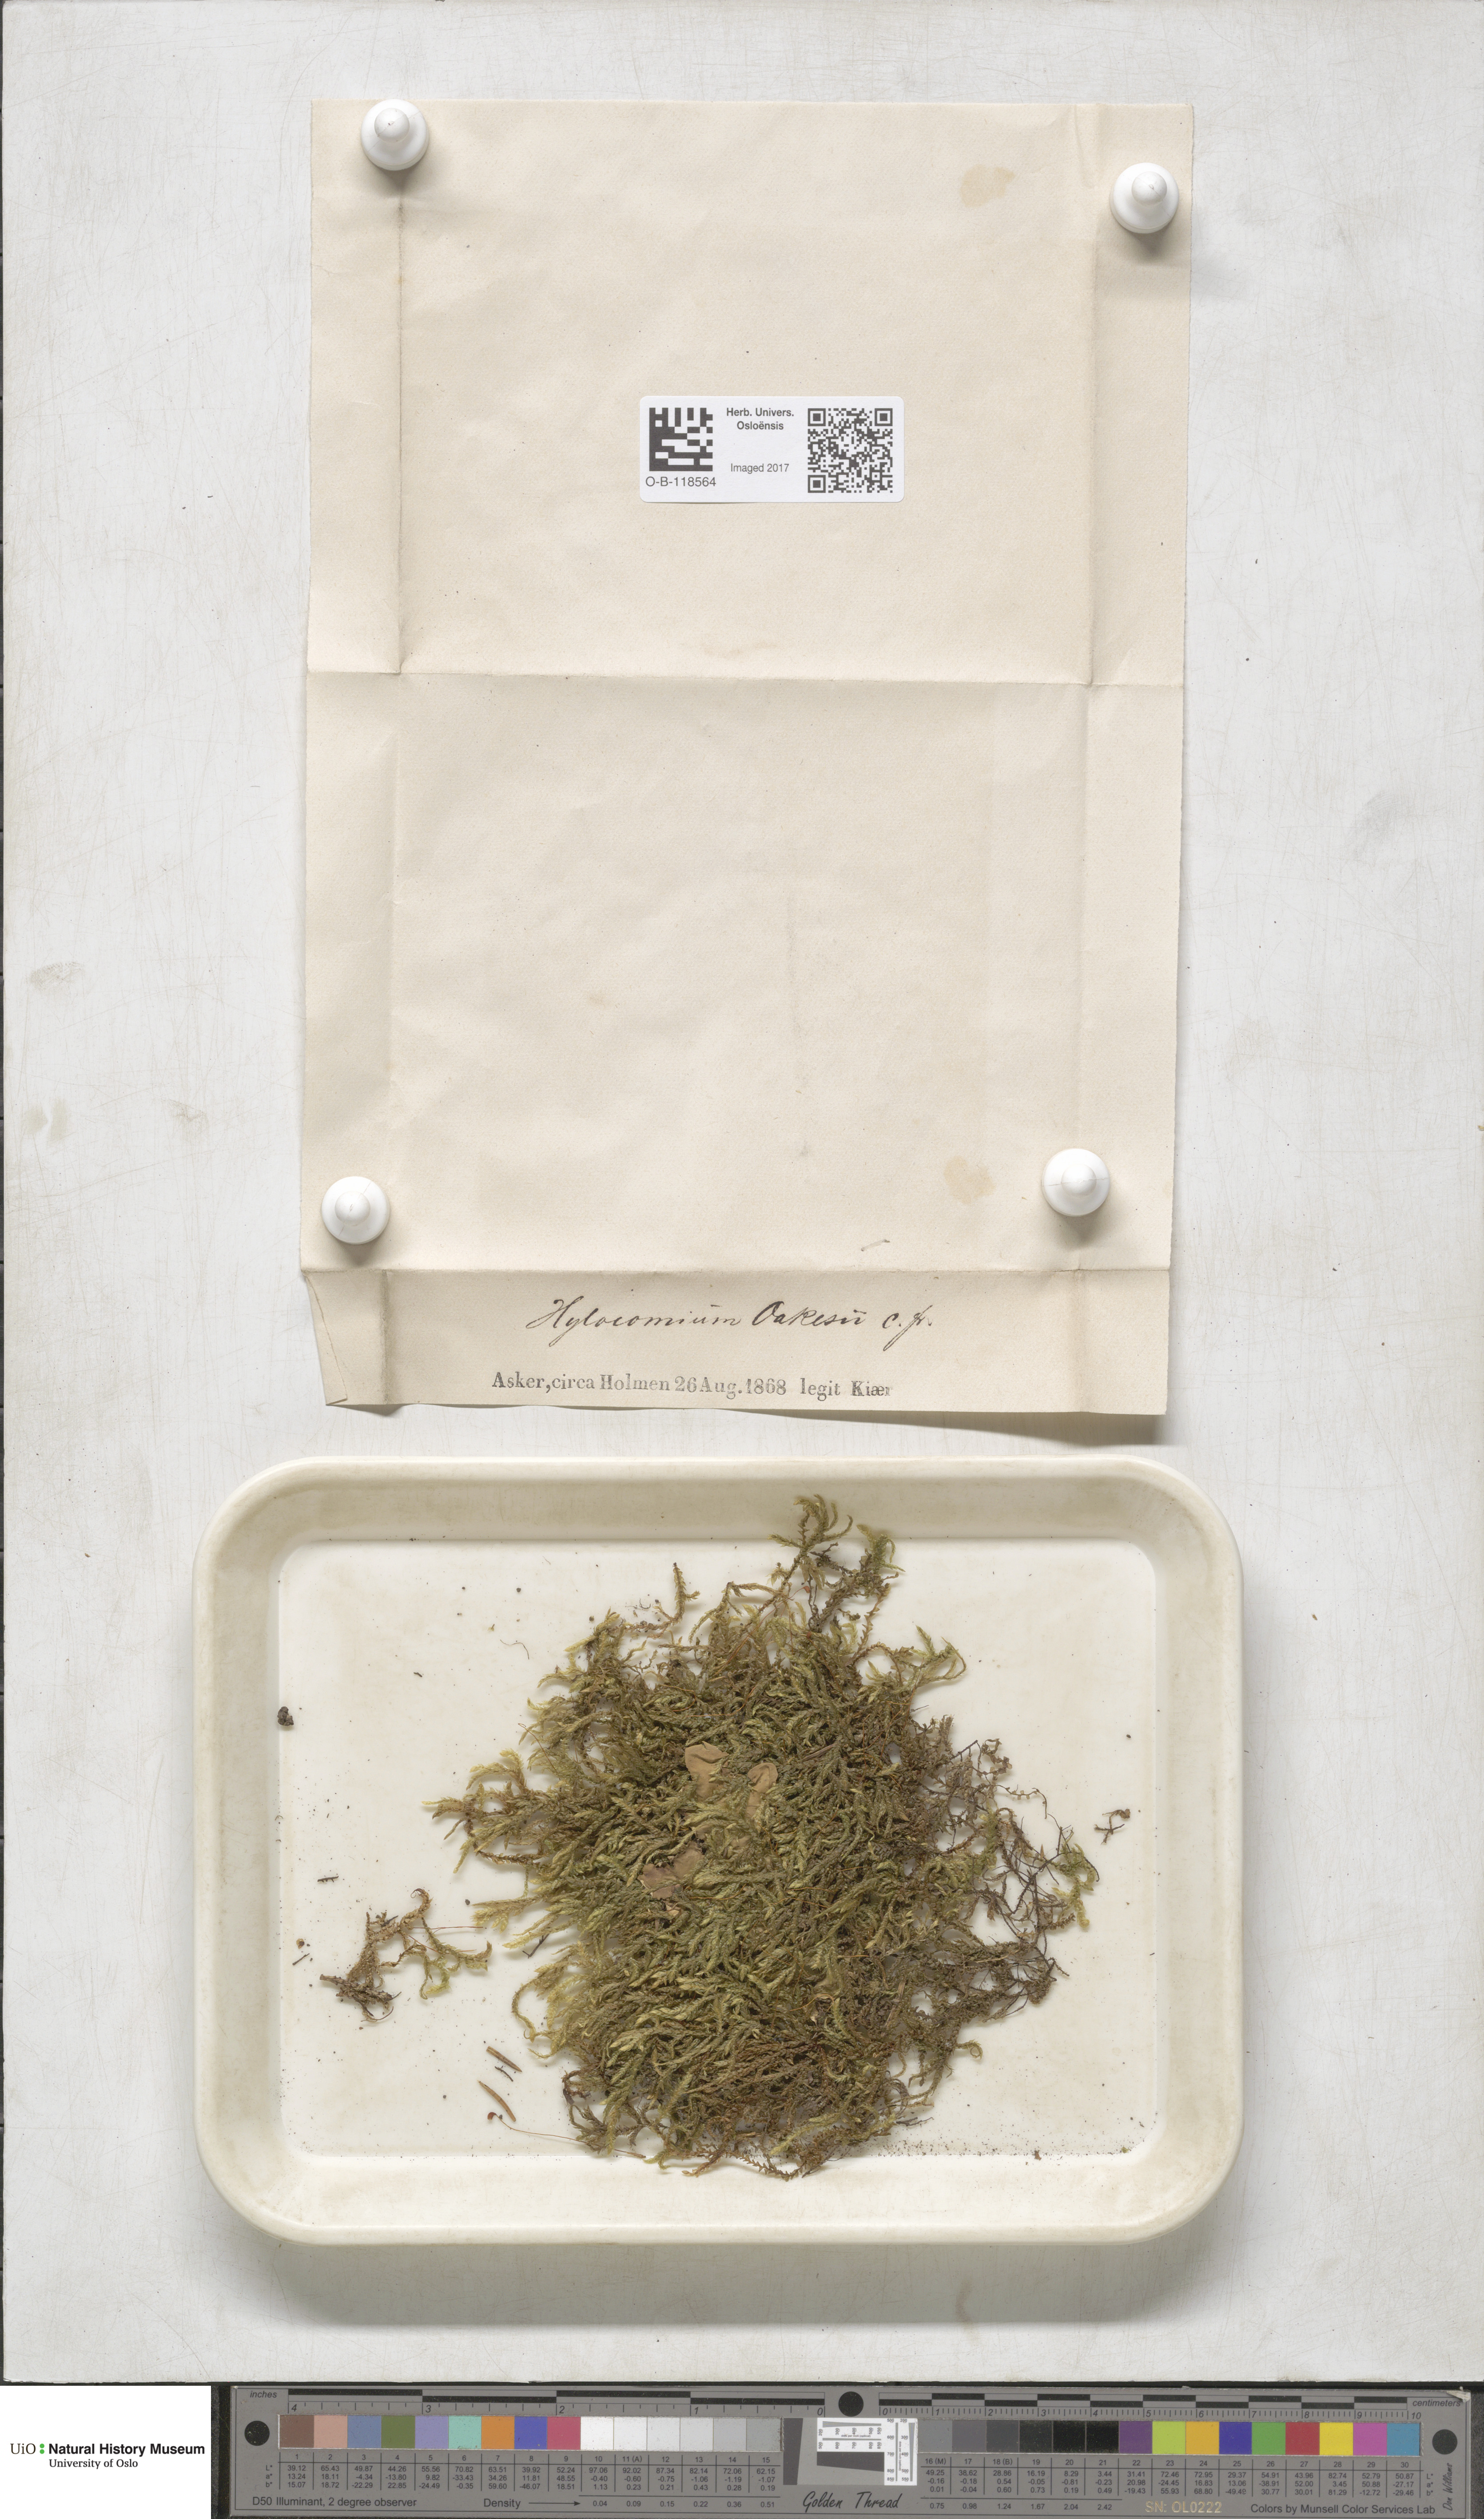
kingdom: Plantae
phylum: Bryophyta
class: Bryopsida
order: Hypnales
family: Hylocomiaceae
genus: Hylocomiastrum
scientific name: Hylocomiastrum pyrenaicum
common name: Oake s wood moss
